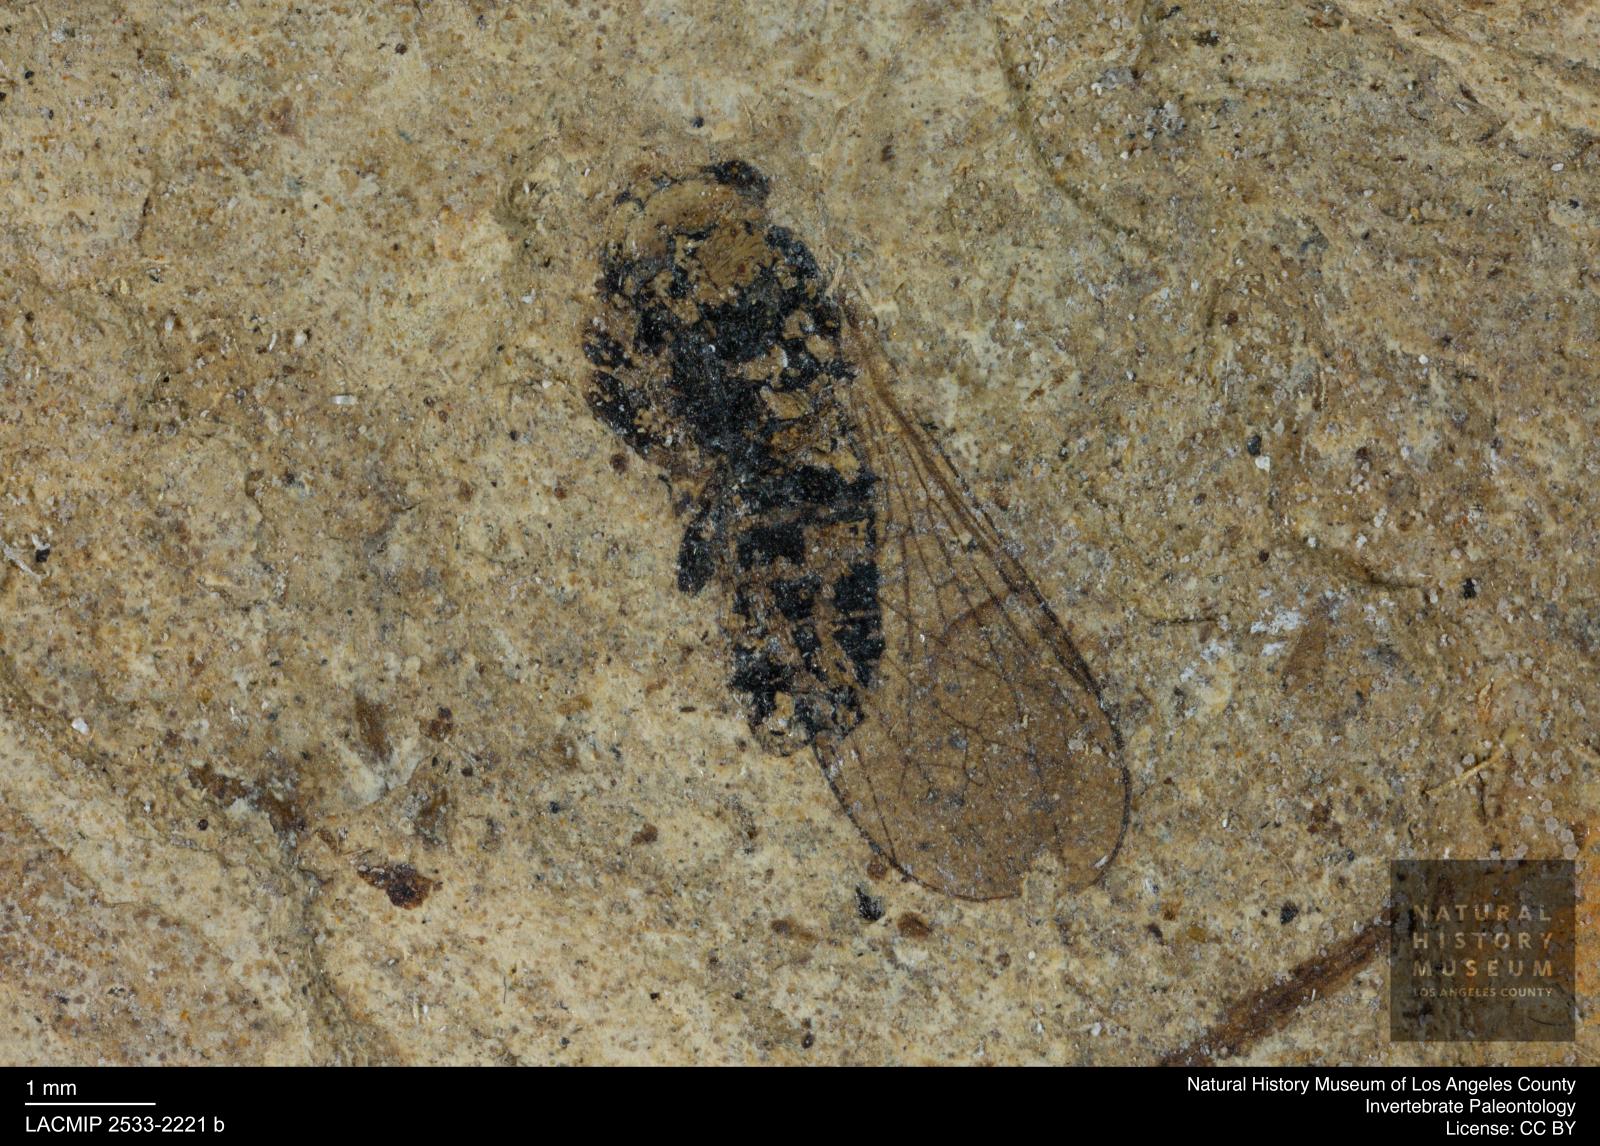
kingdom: Animalia
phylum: Arthropoda
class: Insecta
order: Diptera
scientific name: Diptera
